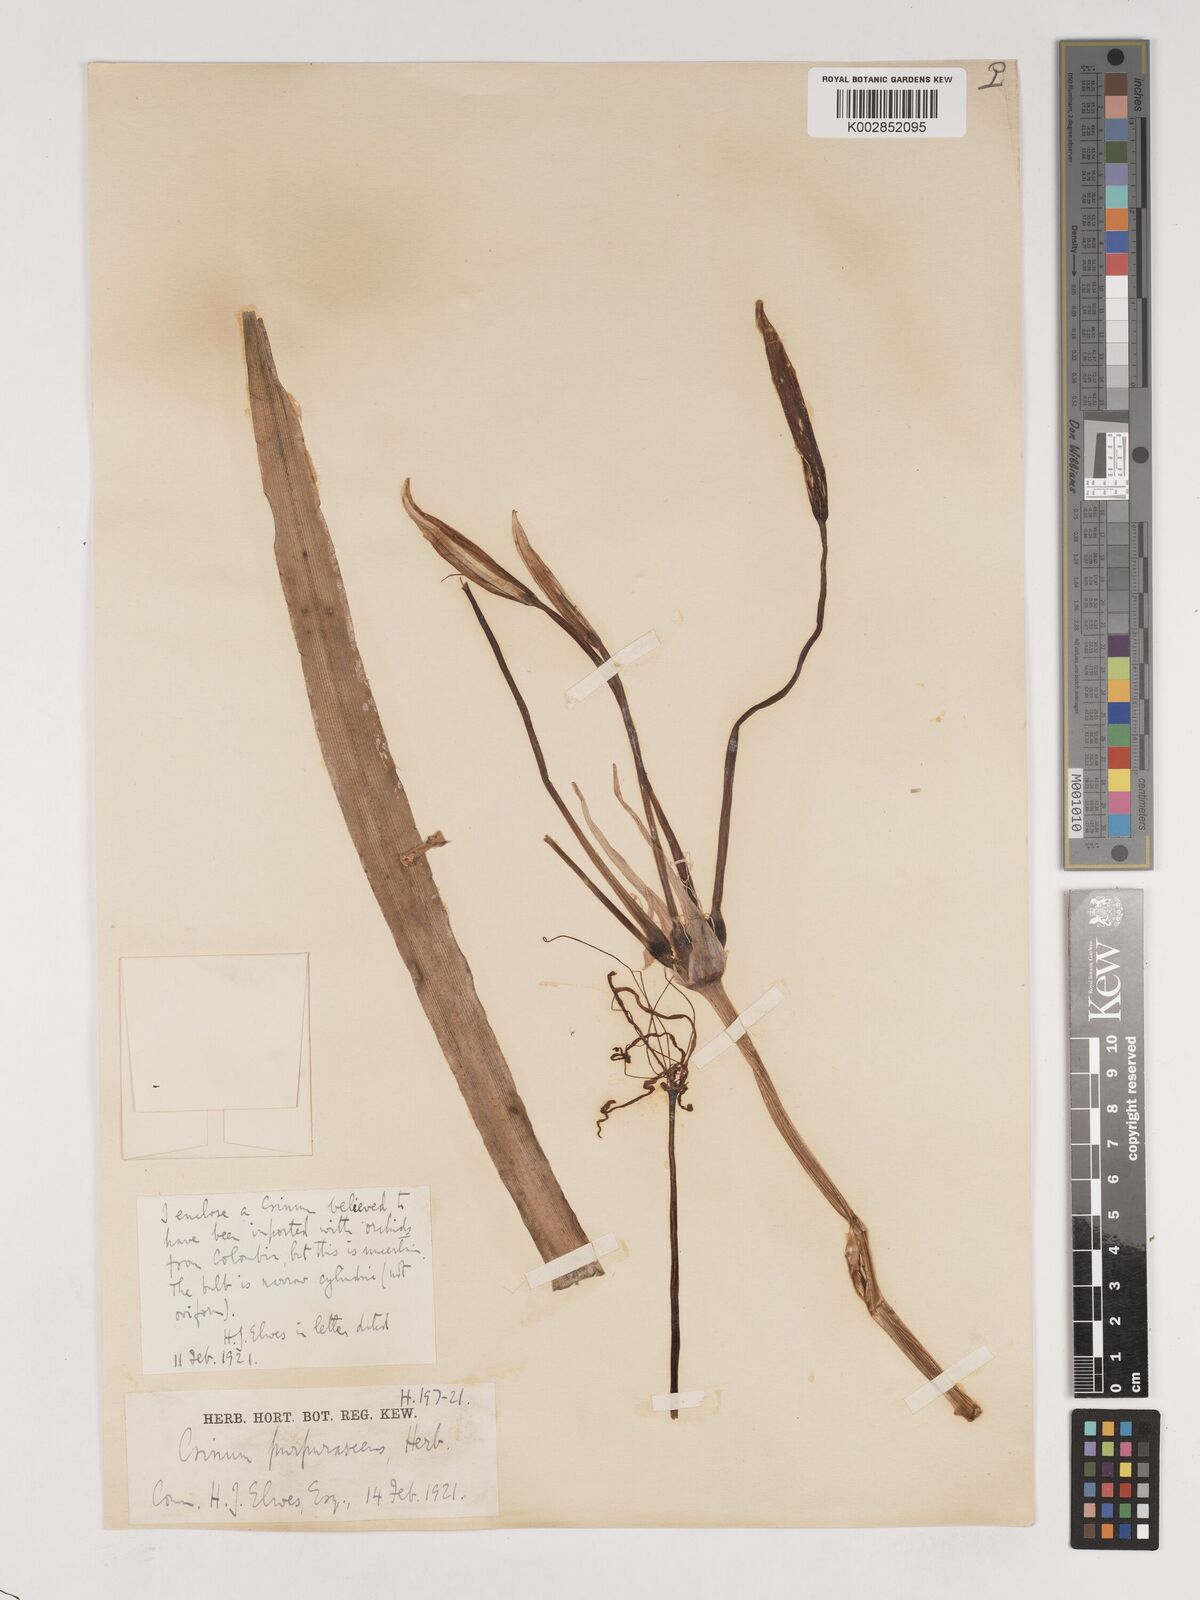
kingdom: Plantae
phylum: Tracheophyta
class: Liliopsida
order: Asparagales
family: Amaryllidaceae
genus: Crinum
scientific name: Crinum purpurascens
